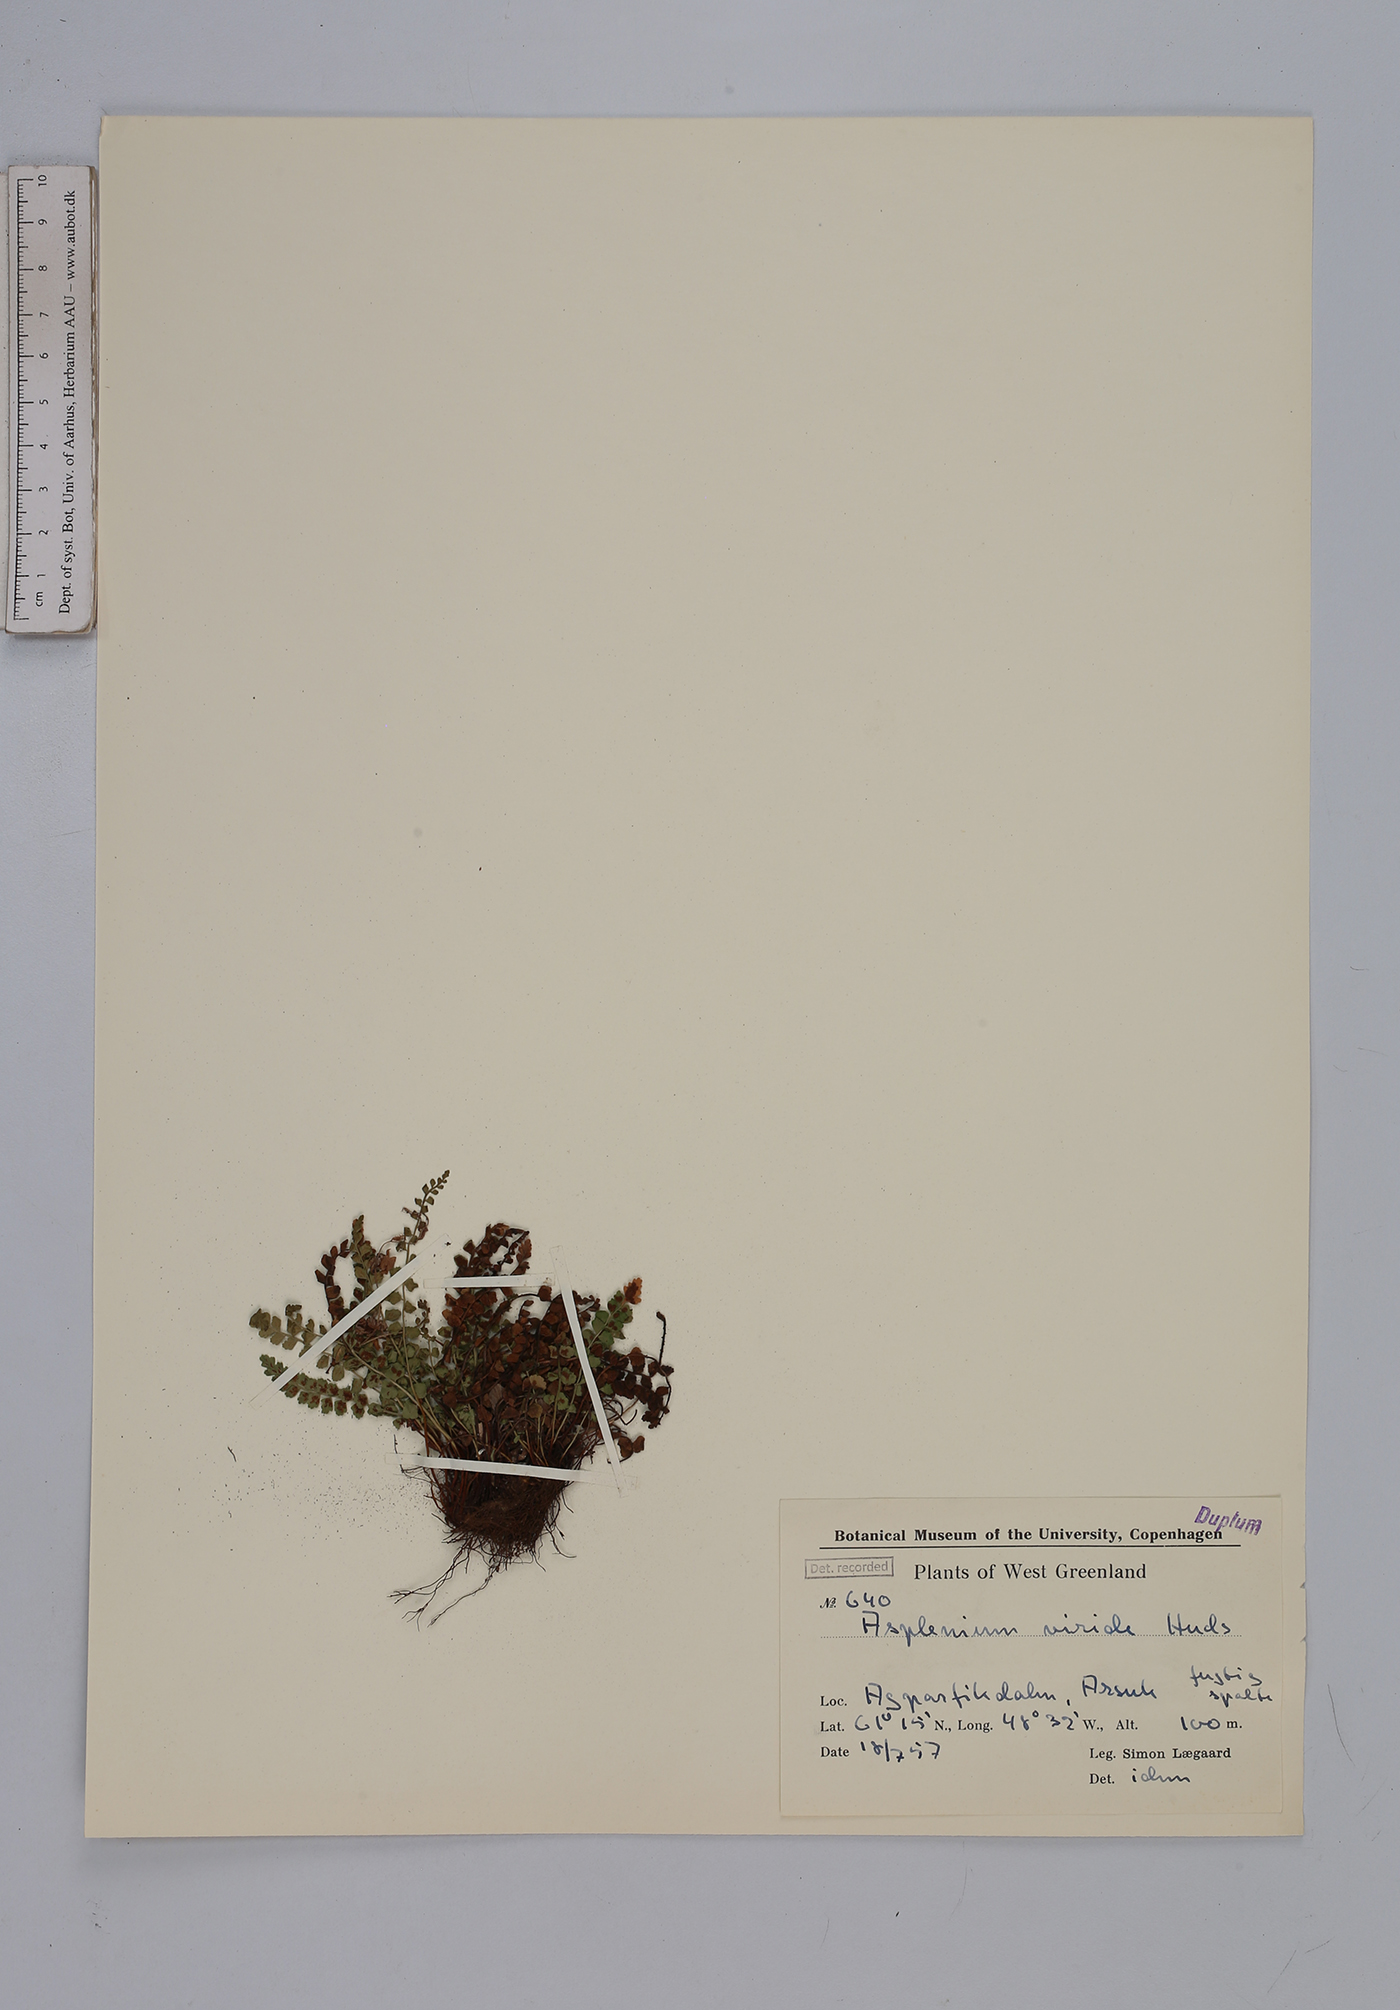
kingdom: Plantae
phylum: Tracheophyta
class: Polypodiopsida
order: Polypodiales
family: Aspleniaceae
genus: Asplenium
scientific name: Asplenium viride
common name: Green spleenwort
